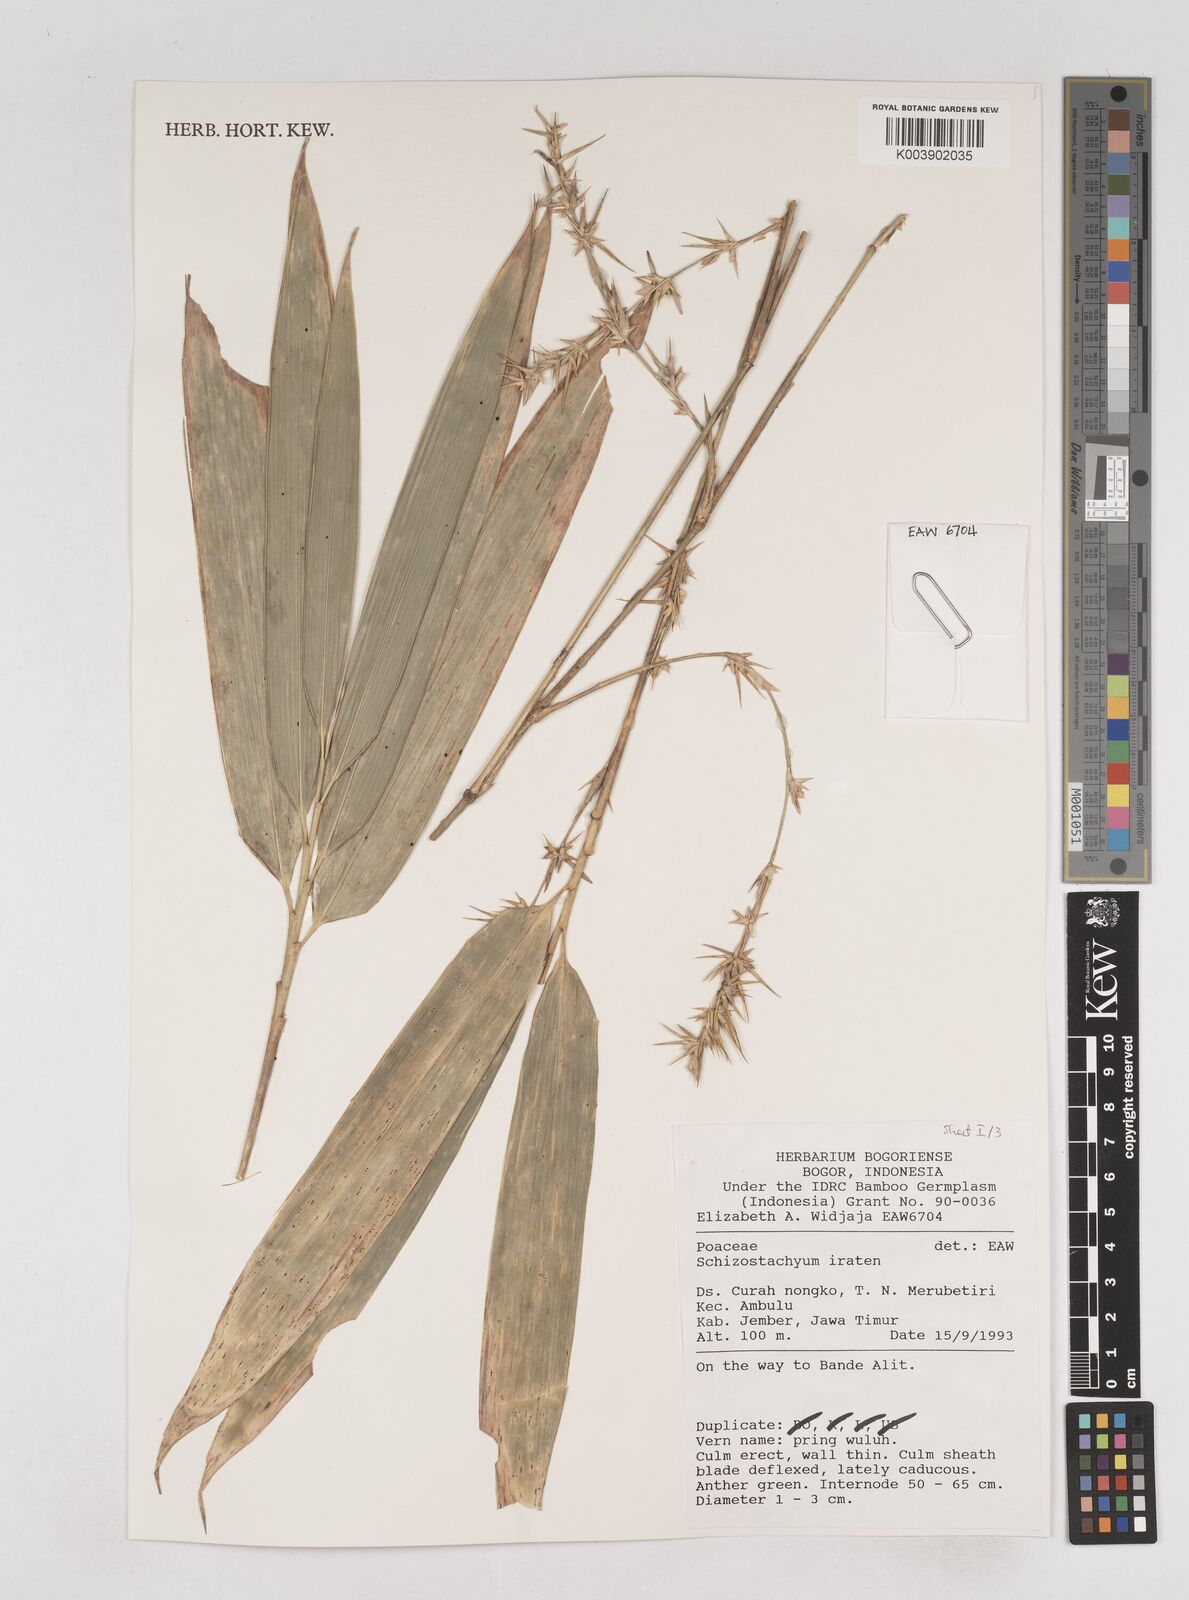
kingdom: Plantae
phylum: Tracheophyta
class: Liliopsida
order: Poales
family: Poaceae
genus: Schizostachyum
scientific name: Schizostachyum iraten
